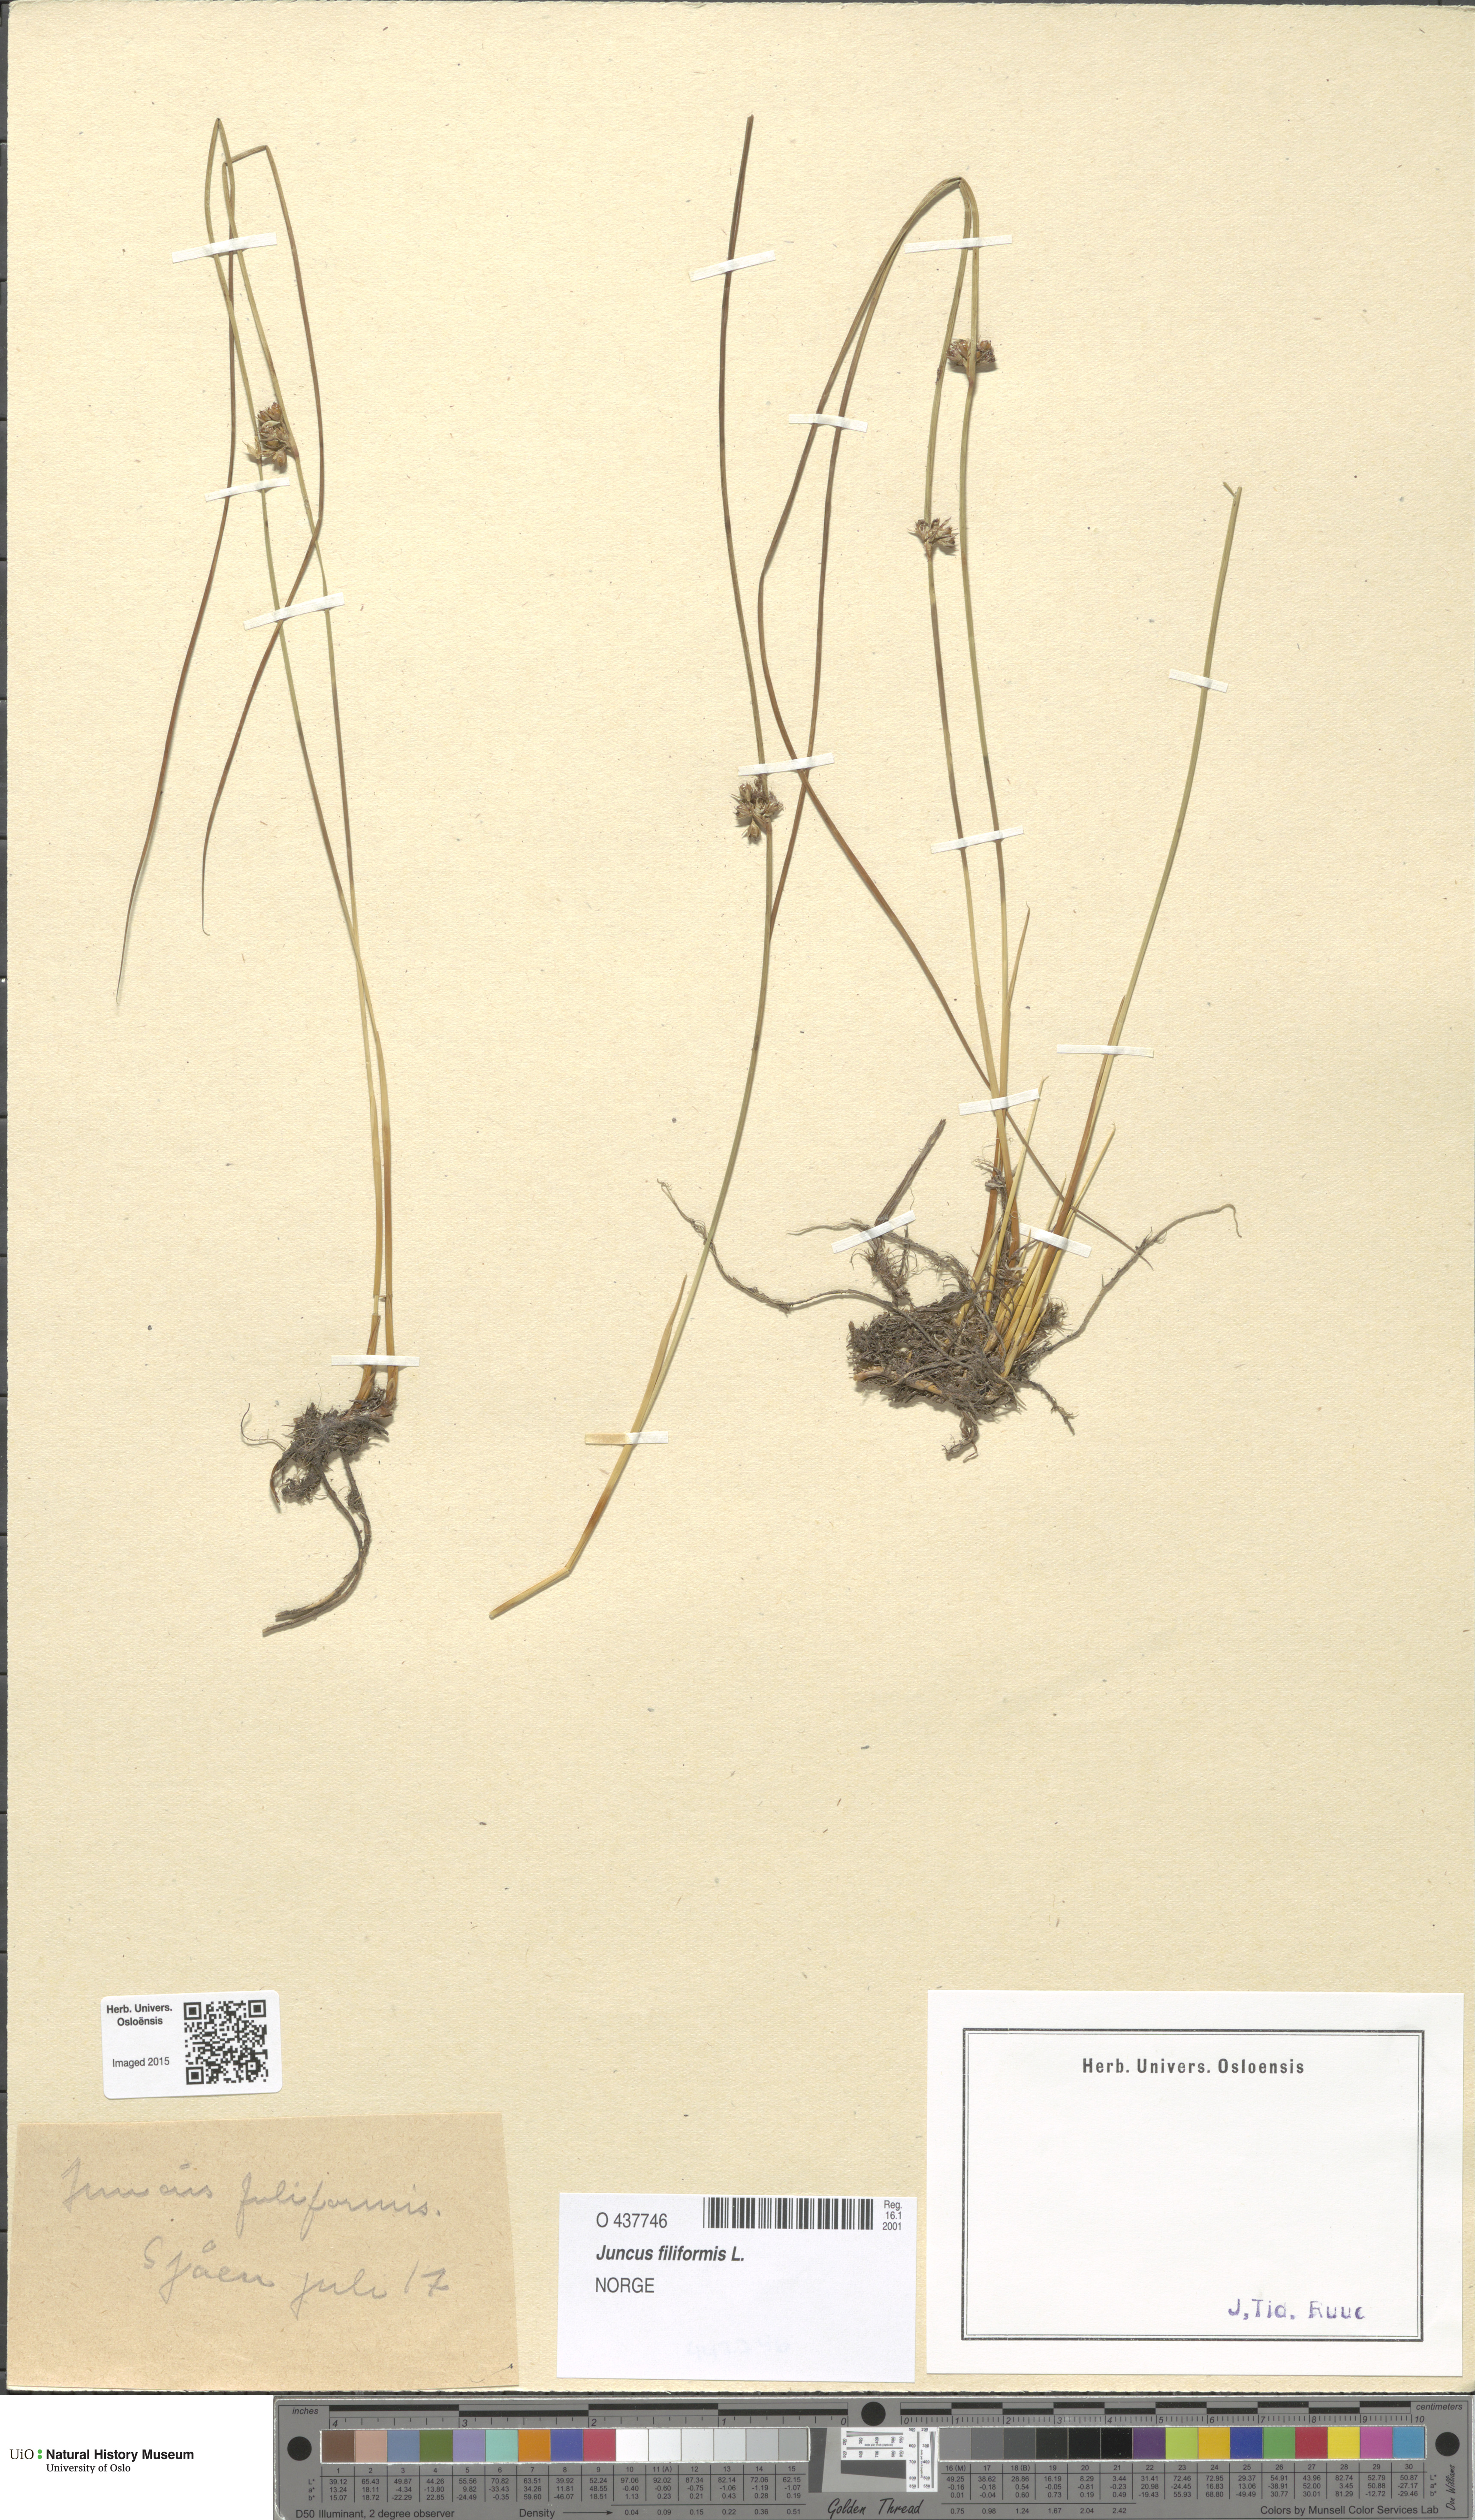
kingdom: Plantae
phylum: Tracheophyta
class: Liliopsida
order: Poales
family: Juncaceae
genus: Juncus
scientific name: Juncus filiformis
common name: Thread rush
